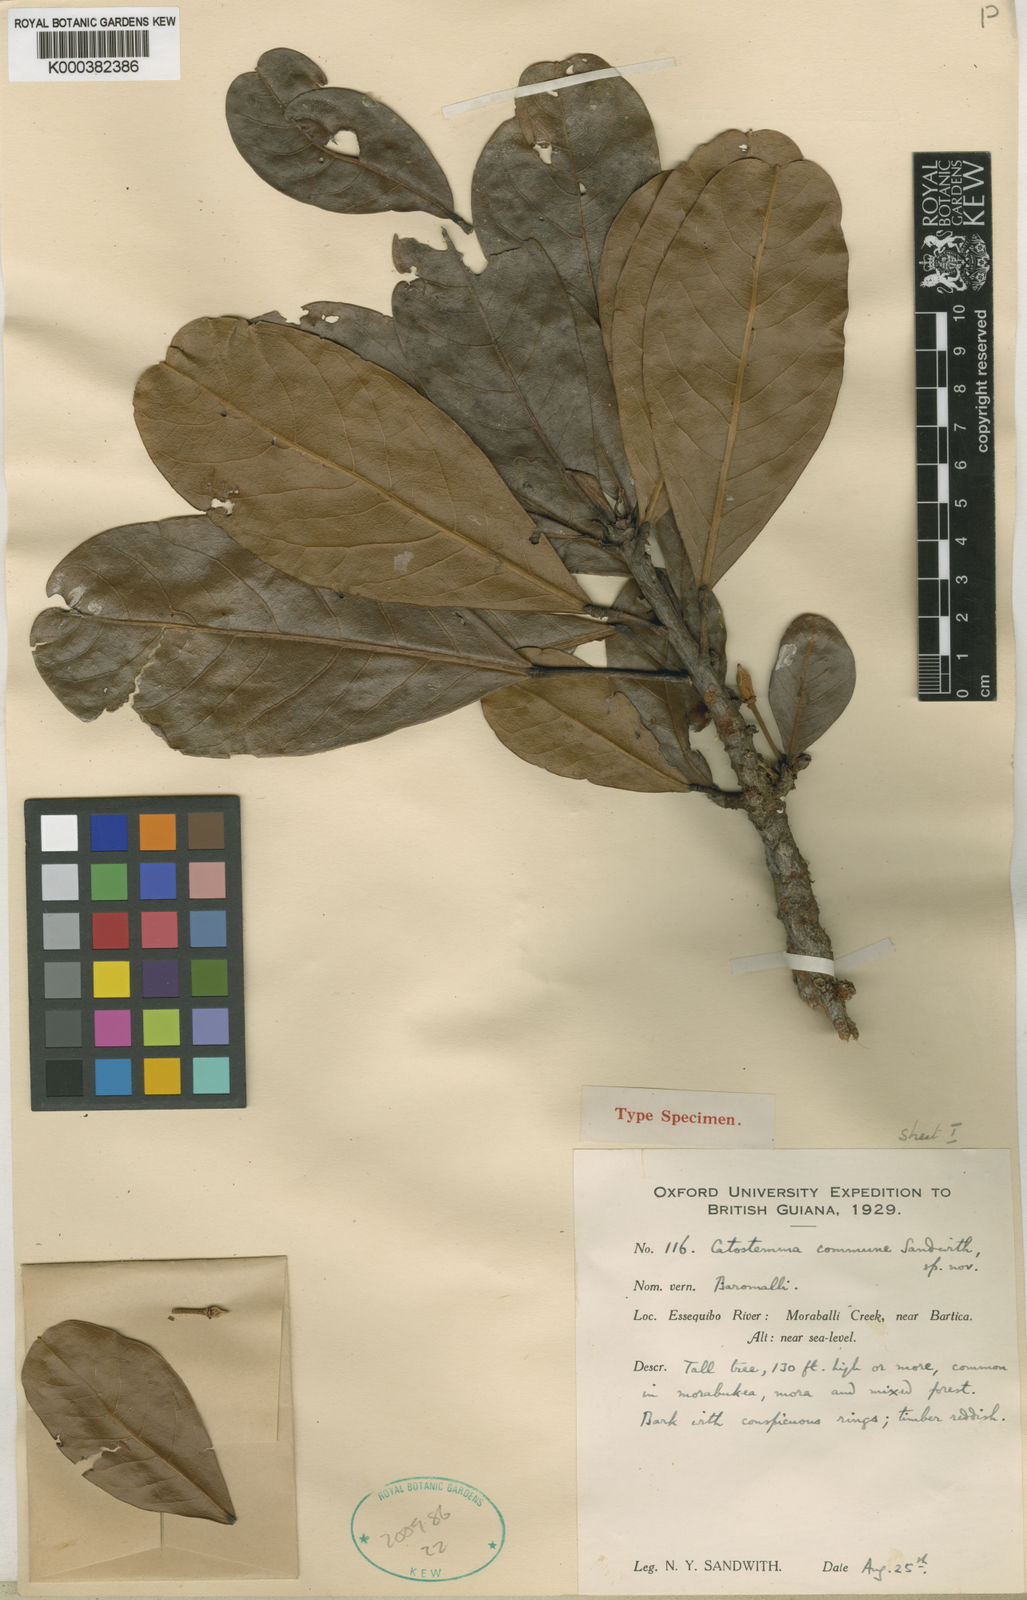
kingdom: Plantae
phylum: Tracheophyta
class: Magnoliopsida
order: Malvales
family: Malvaceae
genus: Catostemma
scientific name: Catostemma commune
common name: Baromalli
